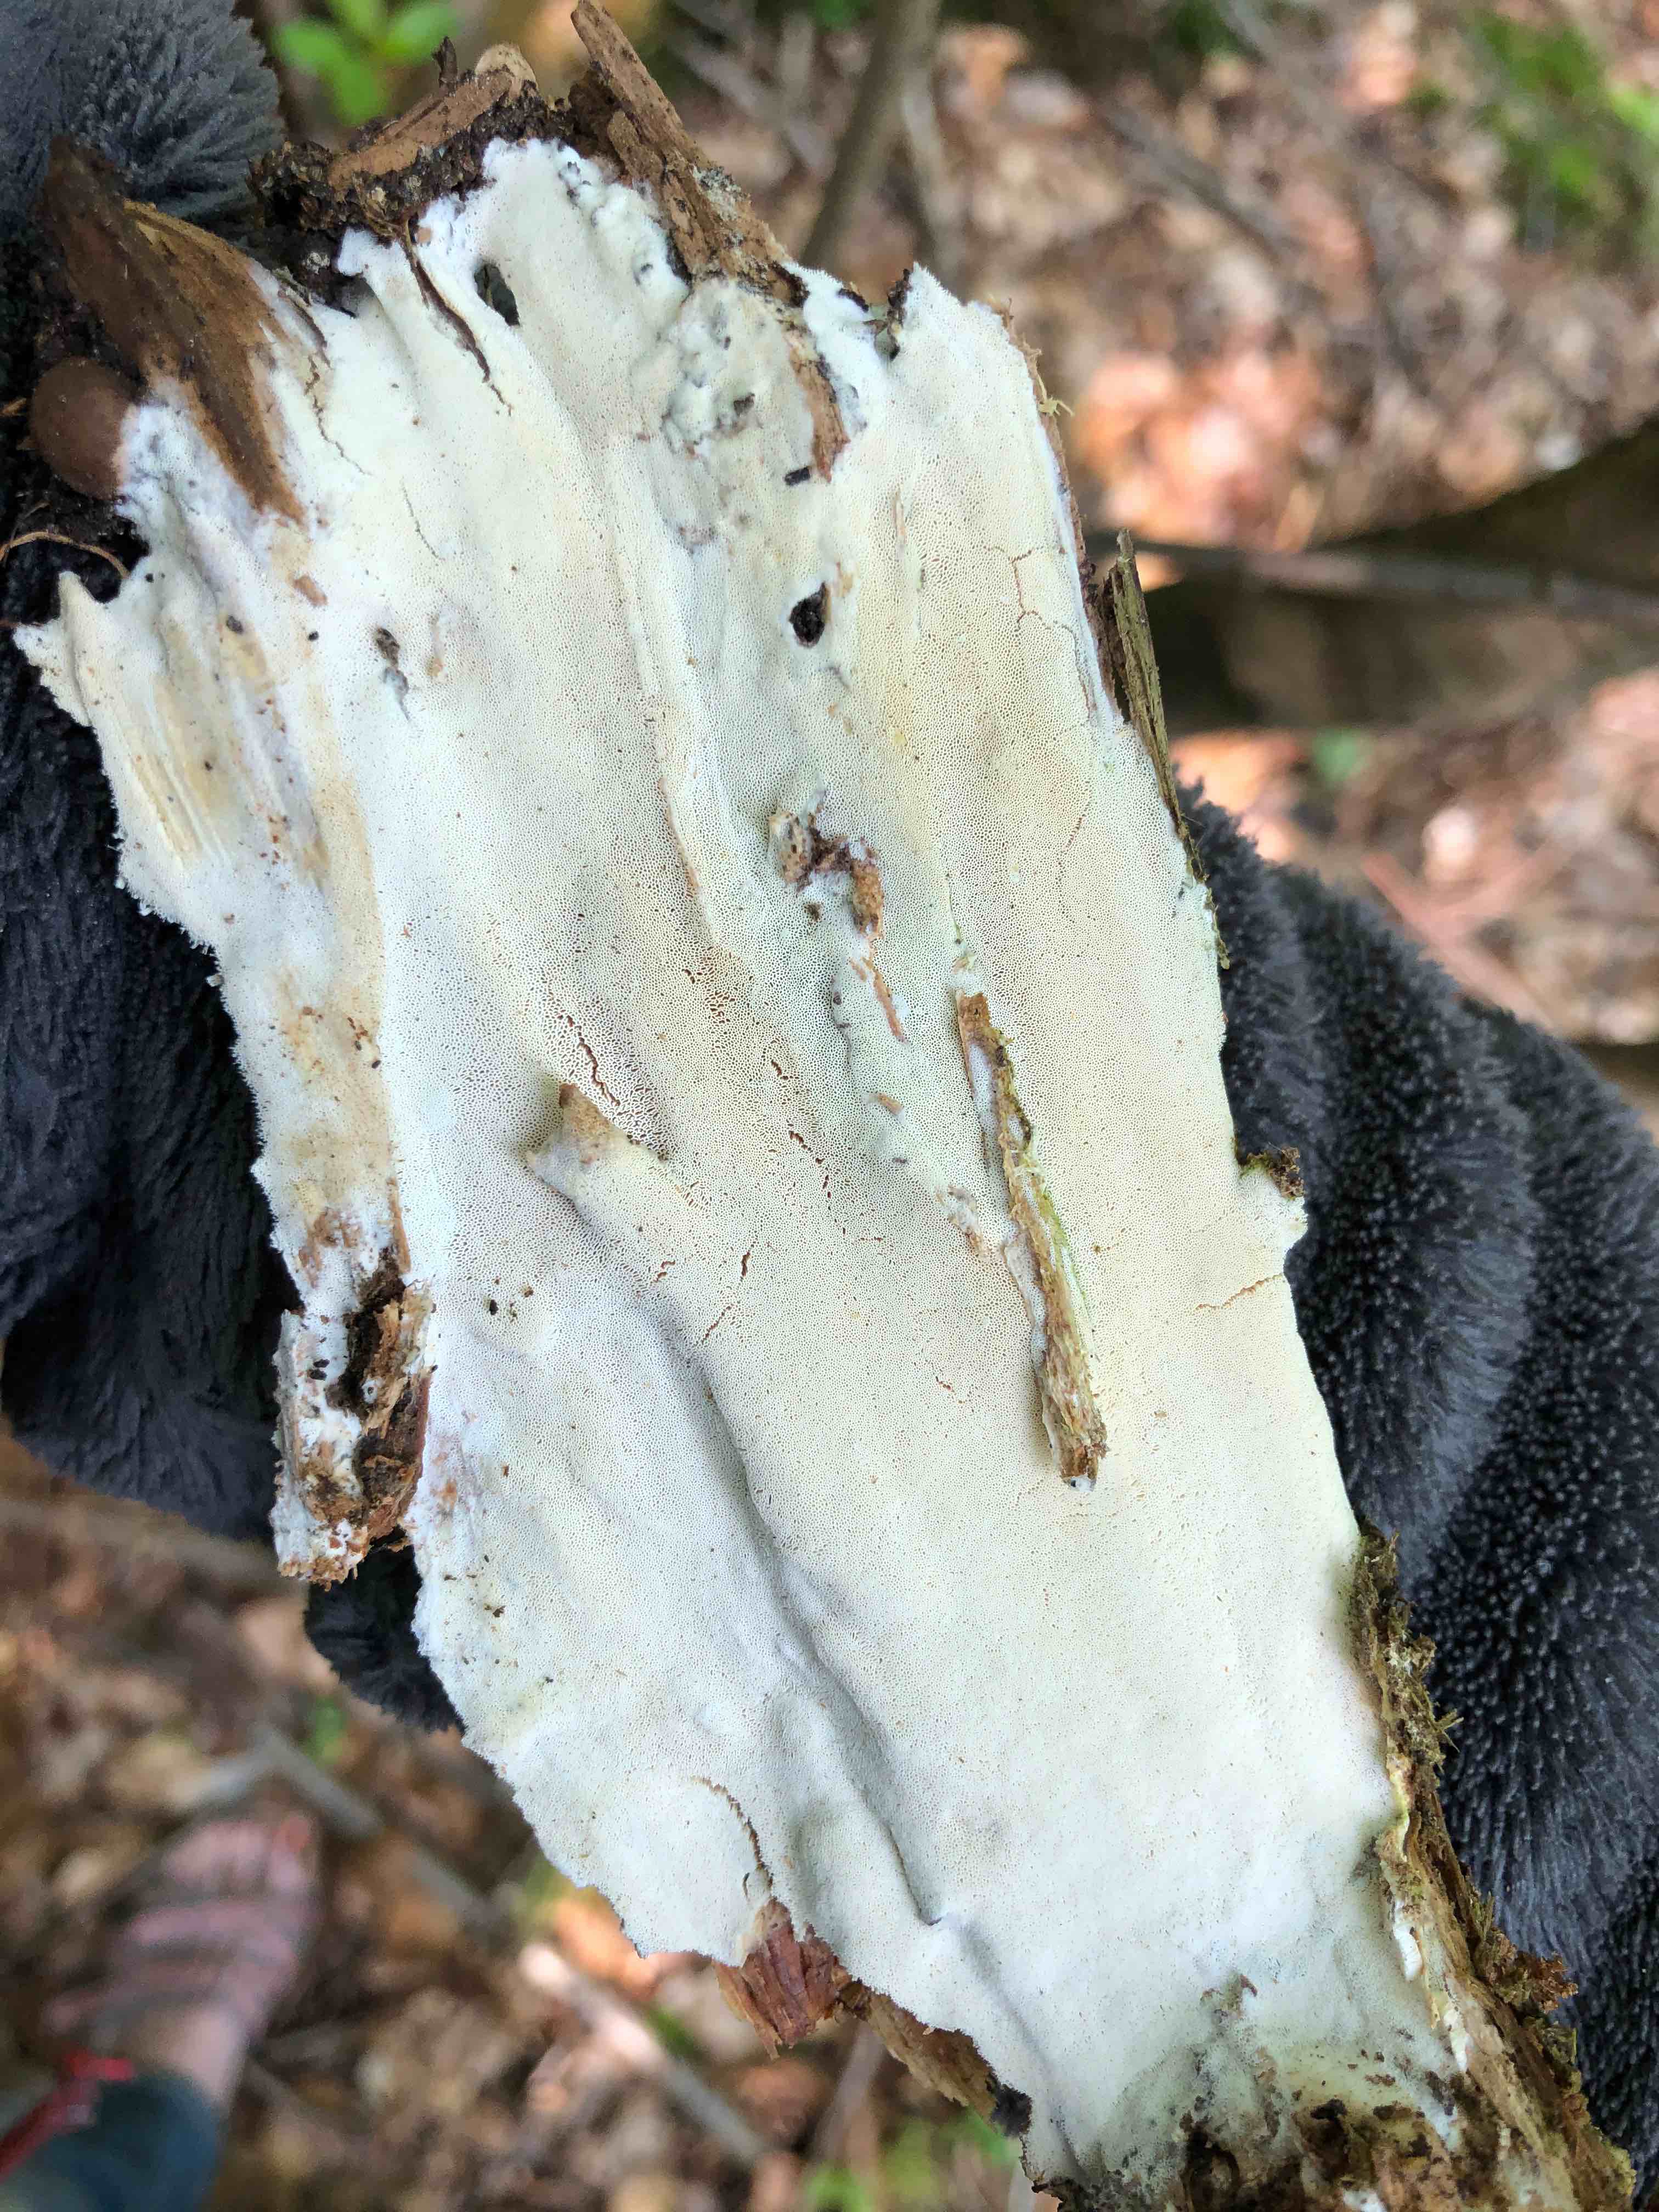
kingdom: Fungi
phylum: Basidiomycota
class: Agaricomycetes
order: Hymenochaetales
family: Rickenellaceae
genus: Sidera
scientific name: Sidera vulgaris
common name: fin flødeporesvamp
